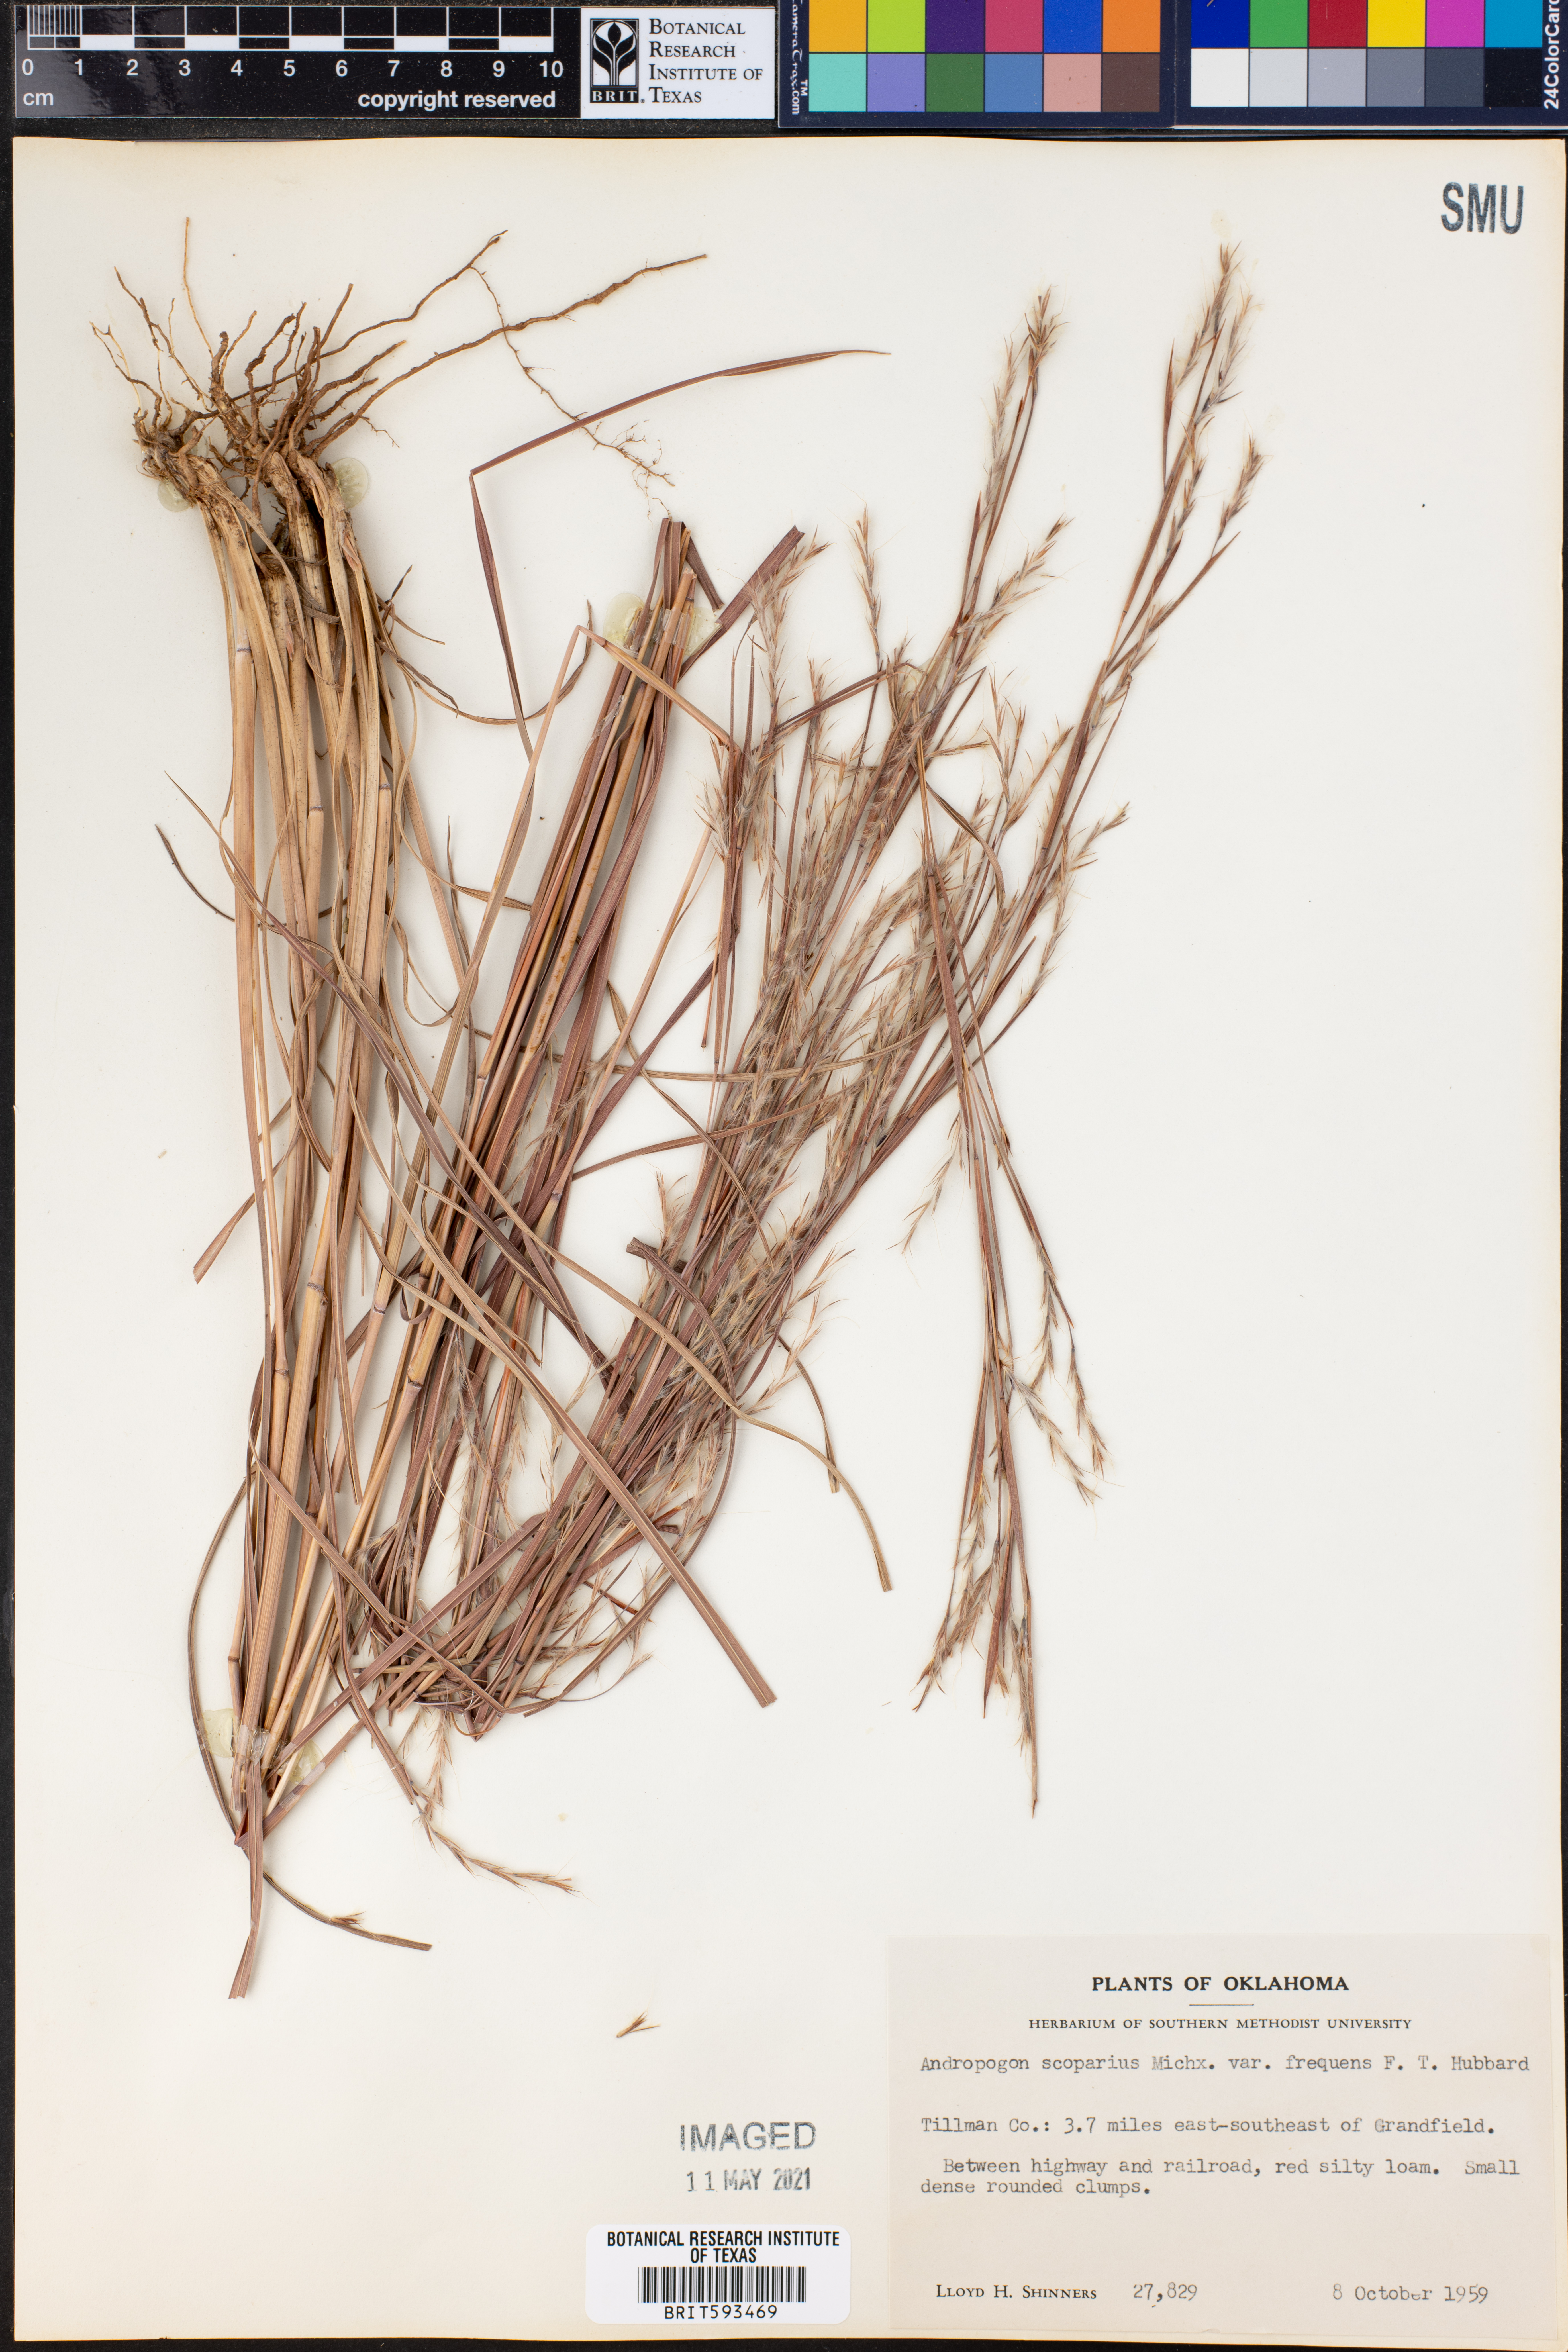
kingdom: Plantae
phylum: Tracheophyta
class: Liliopsida
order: Poales
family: Poaceae
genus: Schizachyrium
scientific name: Schizachyrium scoparium
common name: Little bluestem
